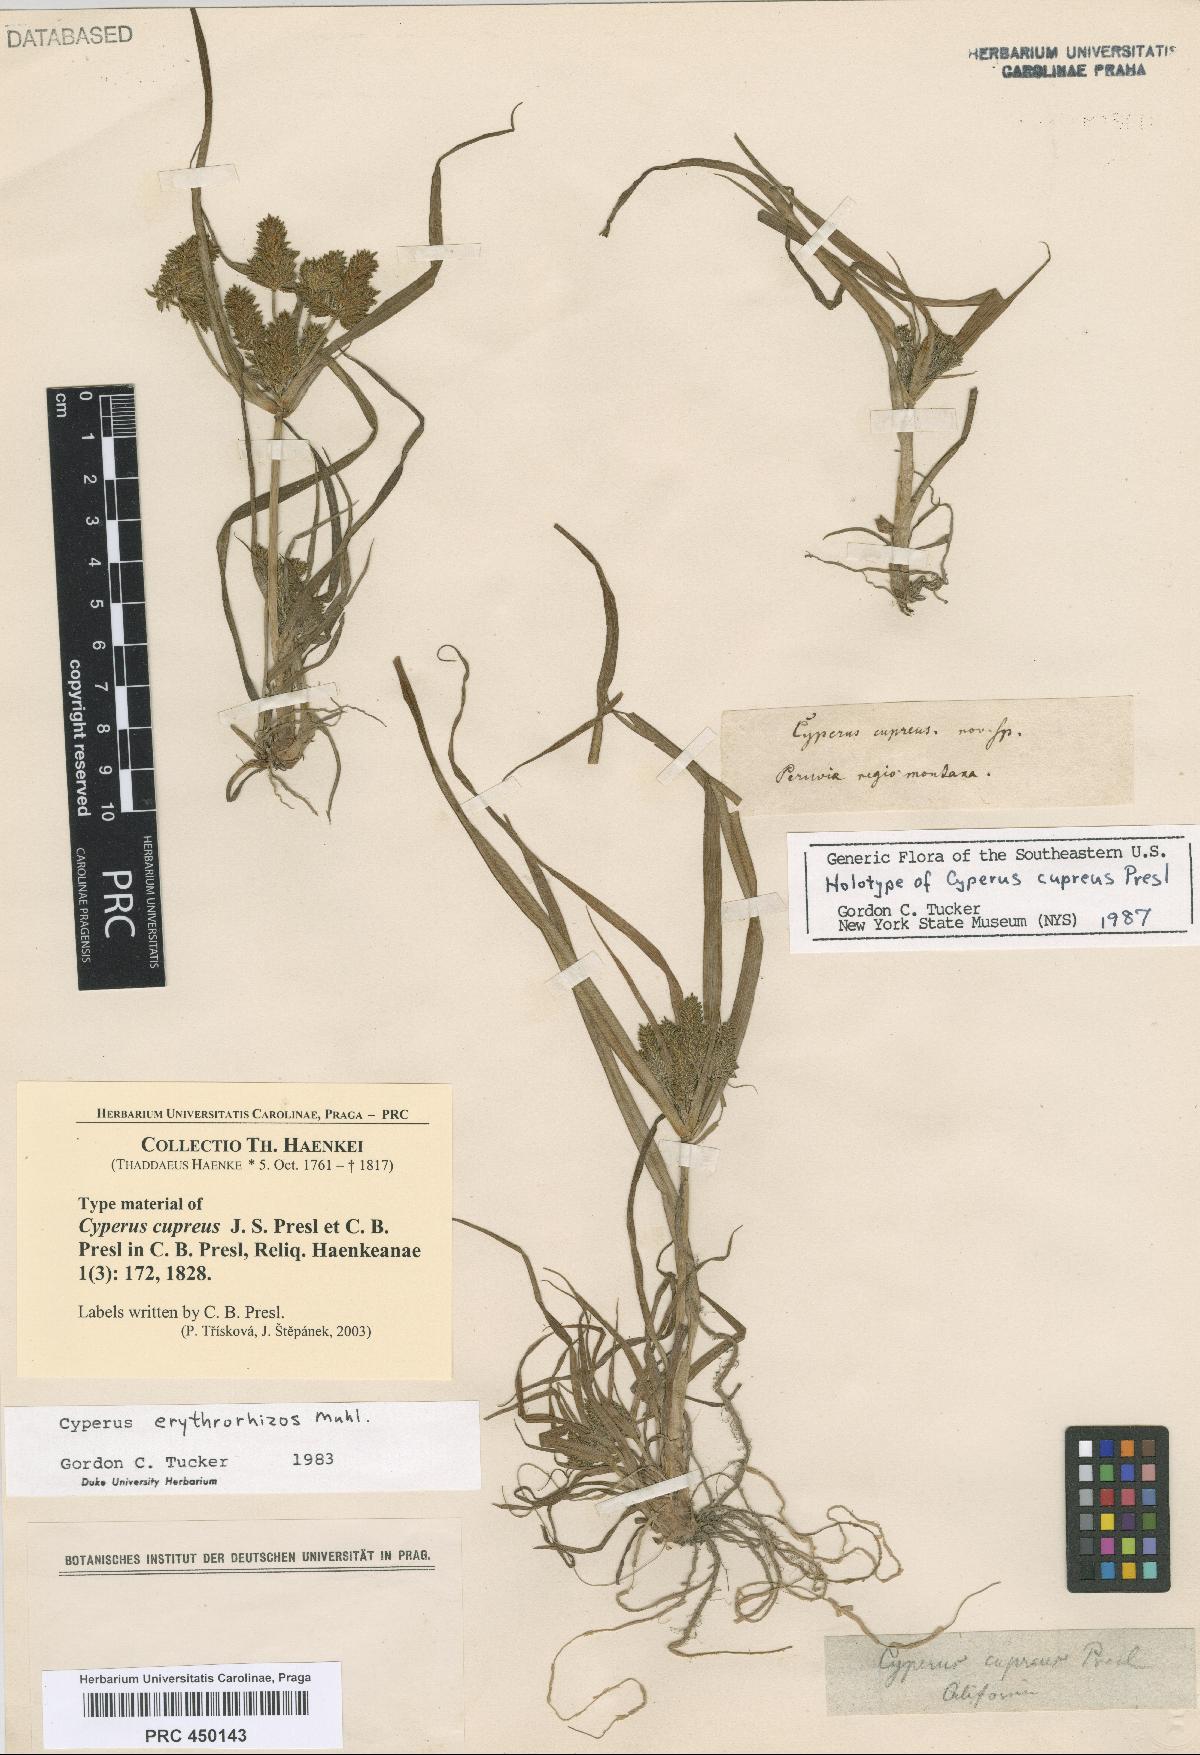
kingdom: Plantae
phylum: Tracheophyta
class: Liliopsida
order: Poales
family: Cyperaceae
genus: Cyperus
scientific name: Cyperus erythrorhizos
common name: Red-root flat sedge
